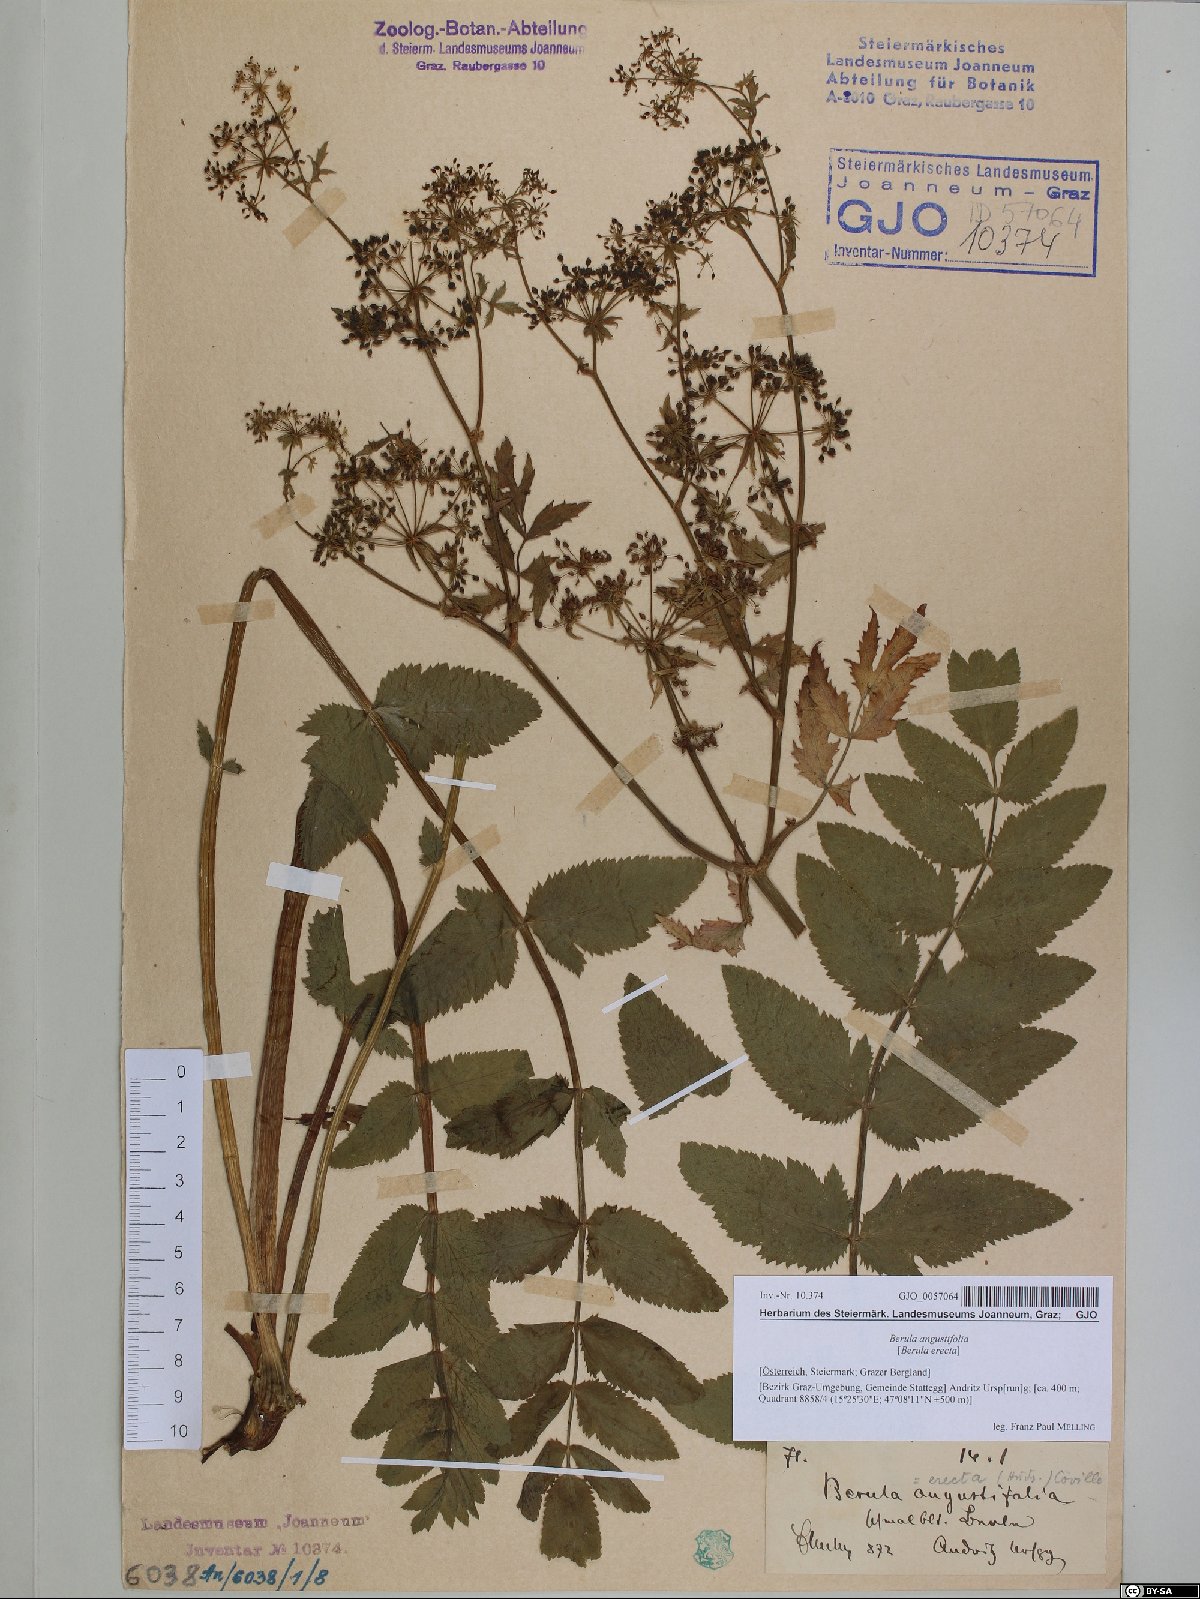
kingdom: Plantae
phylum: Tracheophyta
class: Magnoliopsida
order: Apiales
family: Apiaceae
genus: Berula
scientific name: Berula erecta
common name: Lesser water-parsnip
